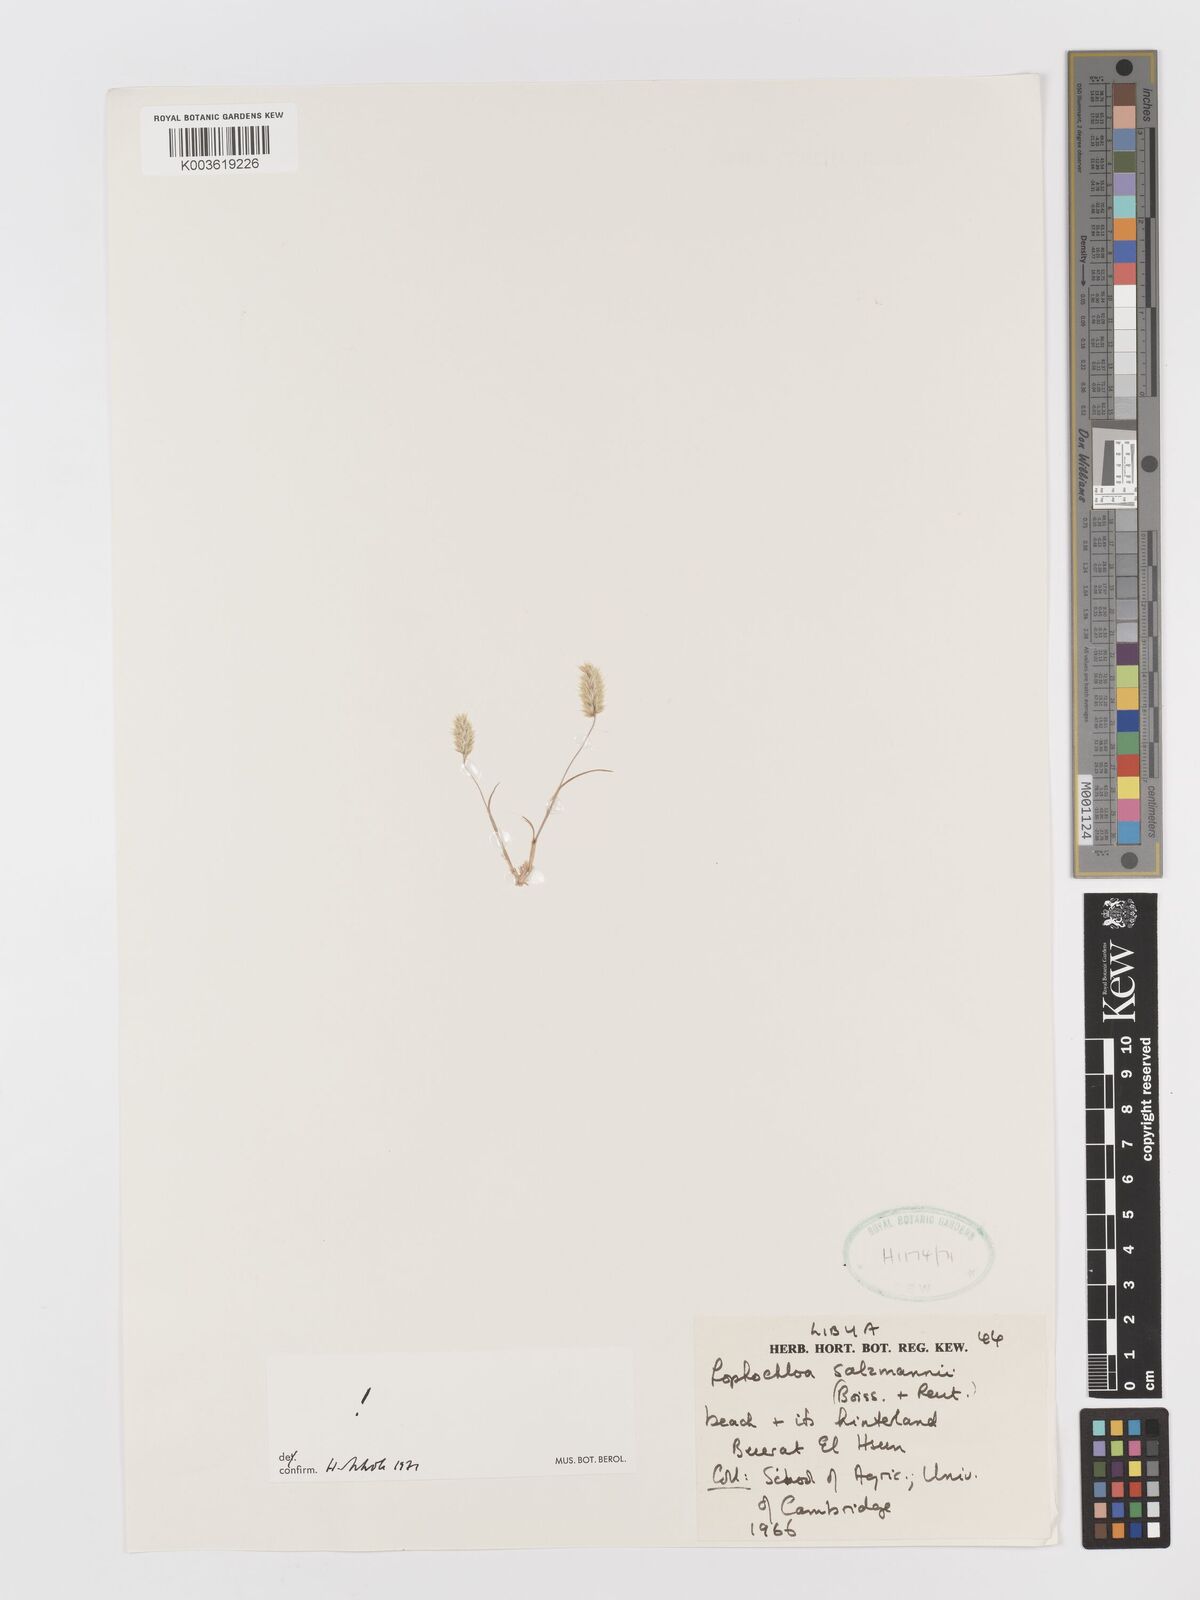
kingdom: Plantae
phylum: Tracheophyta
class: Liliopsida
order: Poales
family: Poaceae
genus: Rostraria
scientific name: Rostraria salzmannii
